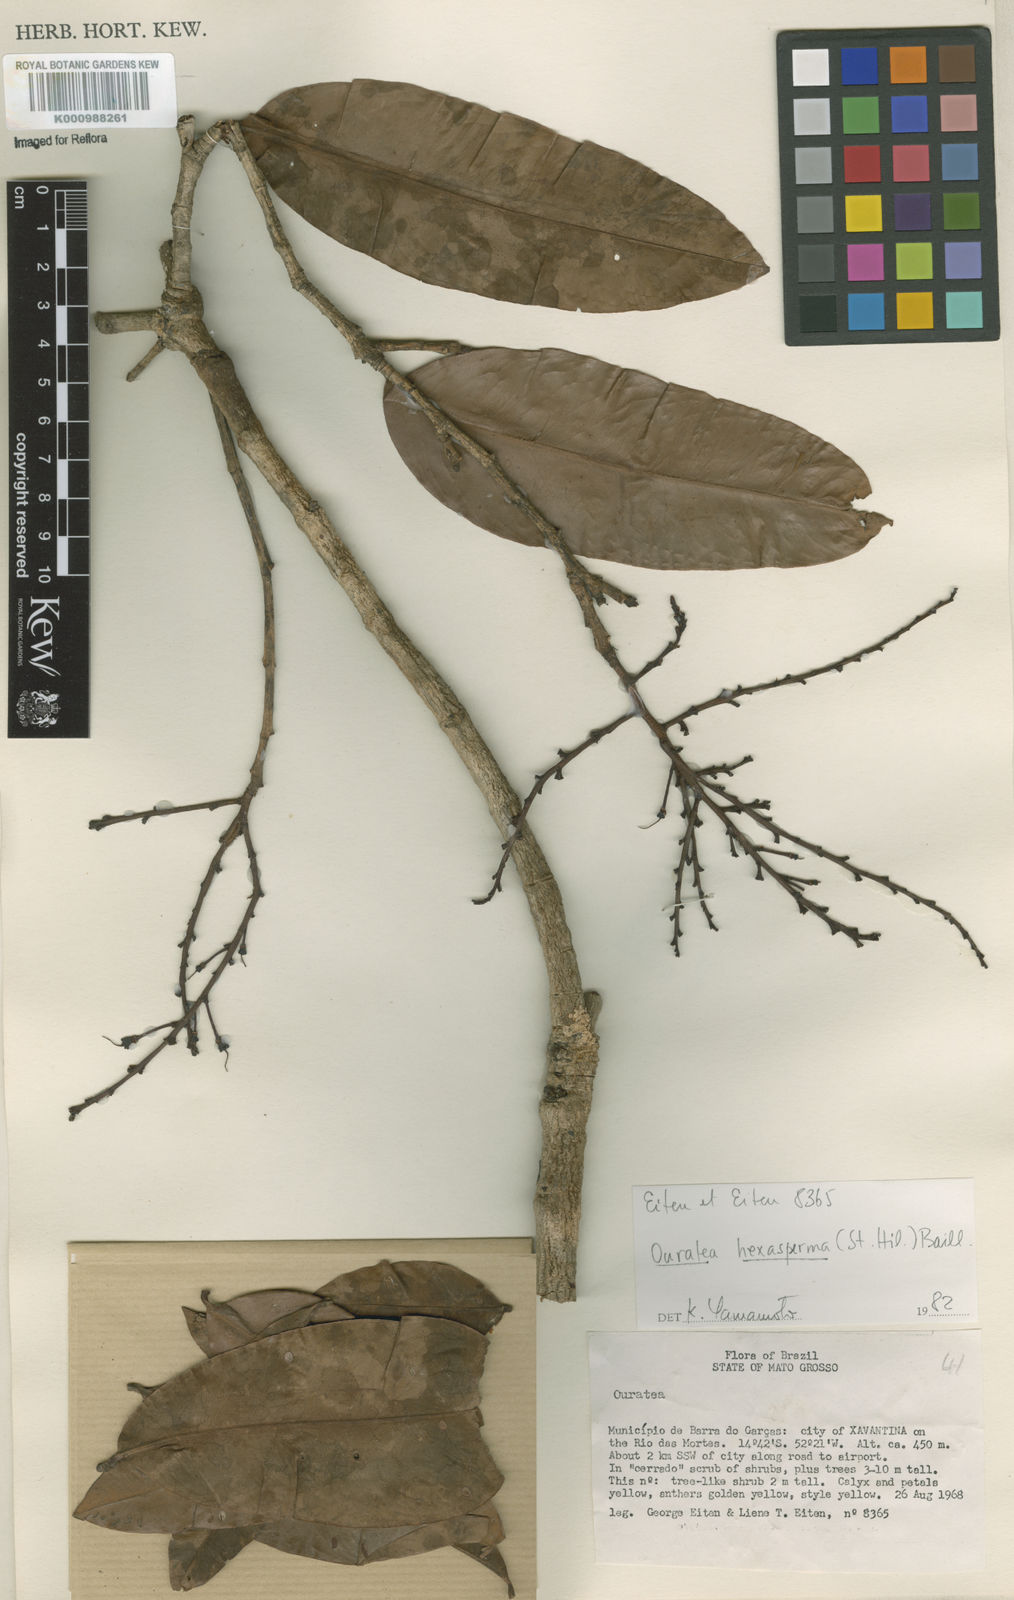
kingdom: Plantae
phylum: Tracheophyta
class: Magnoliopsida
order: Malpighiales
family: Ochnaceae
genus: Ouratea
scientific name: Ouratea hexasperma
